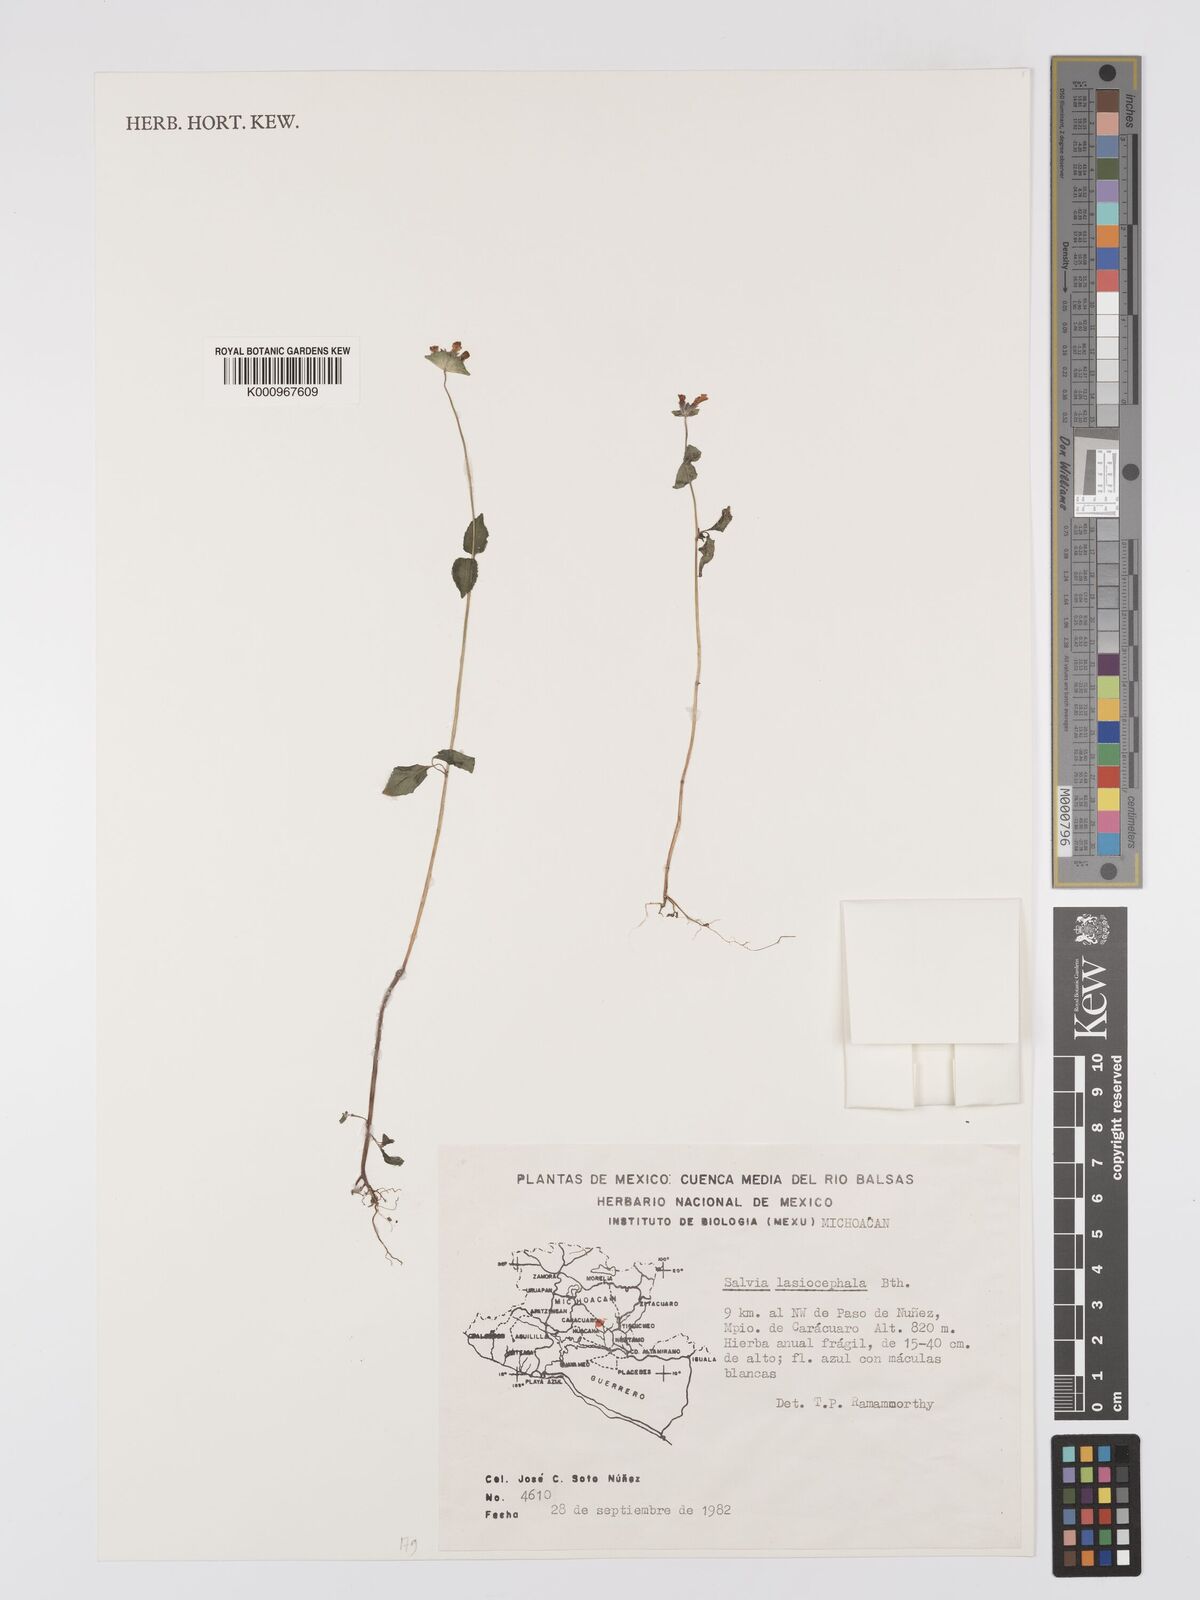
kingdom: Plantae
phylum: Tracheophyta
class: Magnoliopsida
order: Lamiales
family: Lamiaceae
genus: Salvia
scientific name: Salvia lasiocephala
